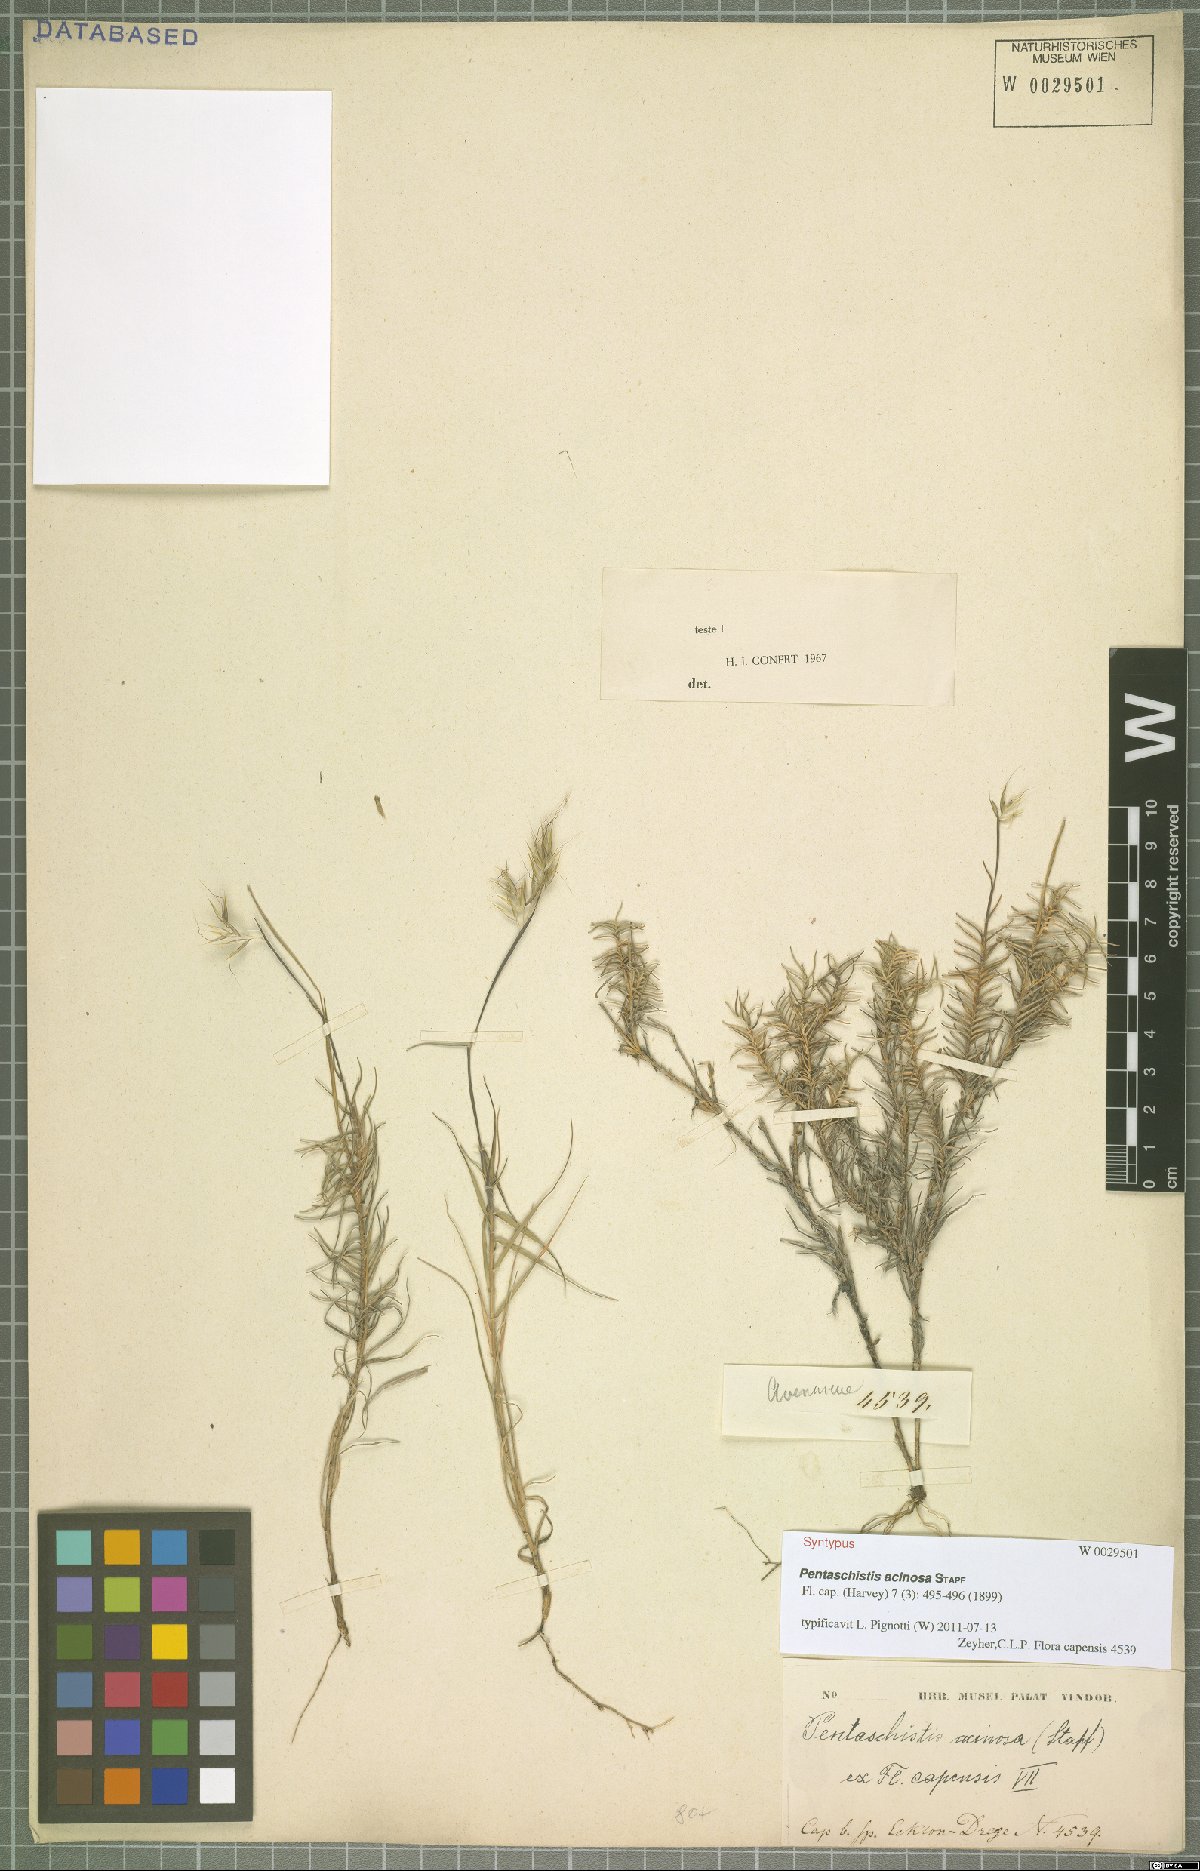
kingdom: Plantae
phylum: Tracheophyta
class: Liliopsida
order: Poales
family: Poaceae
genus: Pentameris
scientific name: Pentameris acinosa
